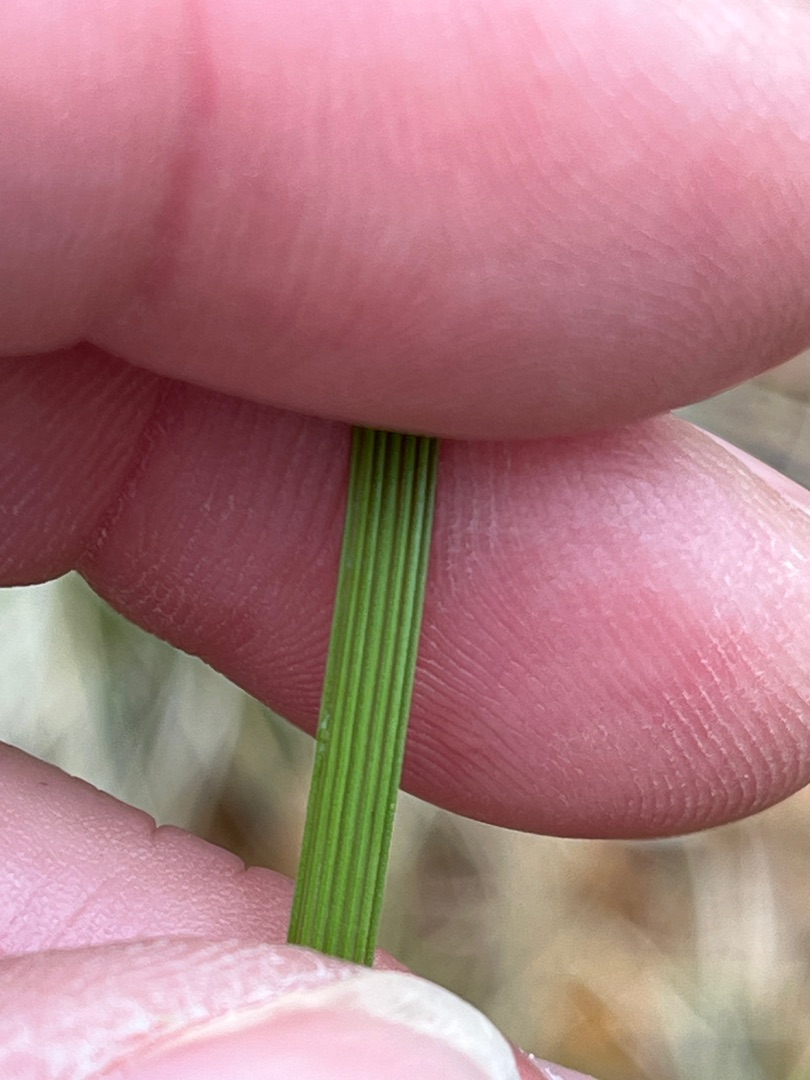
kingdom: Plantae
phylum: Tracheophyta
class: Liliopsida
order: Poales
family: Poaceae
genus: Deschampsia
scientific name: Deschampsia cespitosa
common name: Mose-bunke
